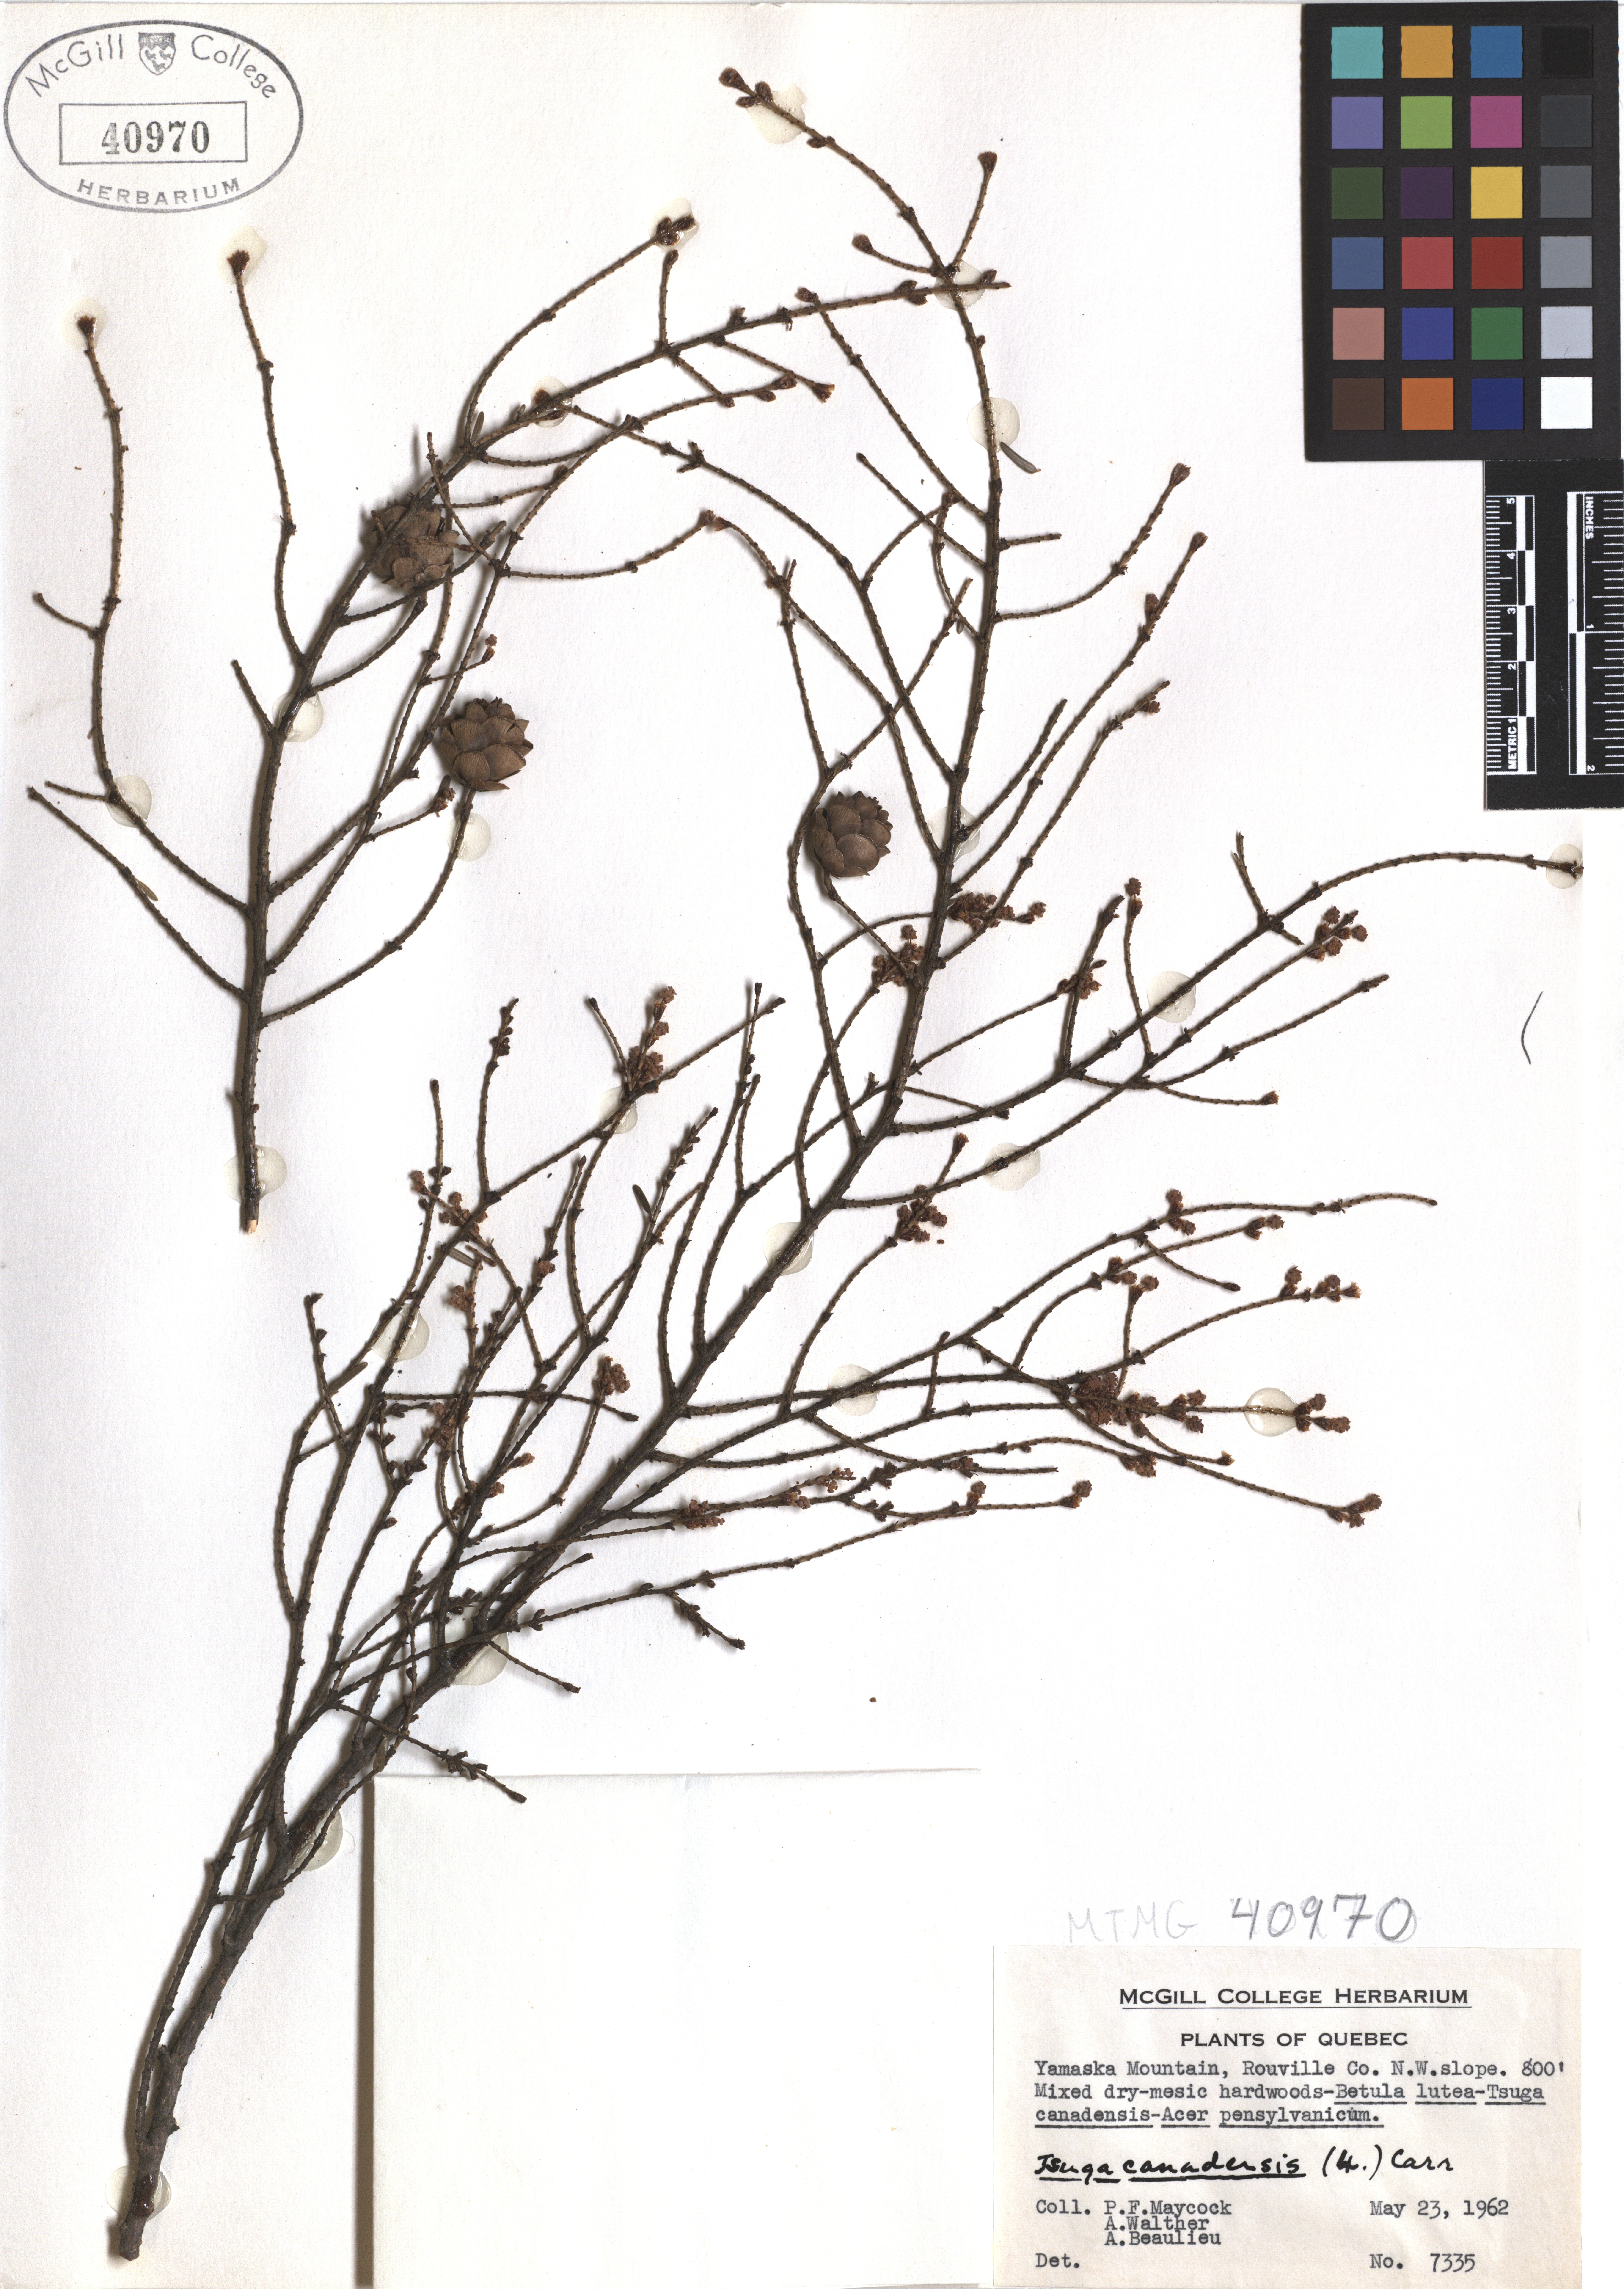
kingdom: Plantae
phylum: Tracheophyta
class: Pinopsida
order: Pinales
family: Pinaceae
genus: Tsuga
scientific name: Tsuga canadensis
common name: Eastern hemlock
